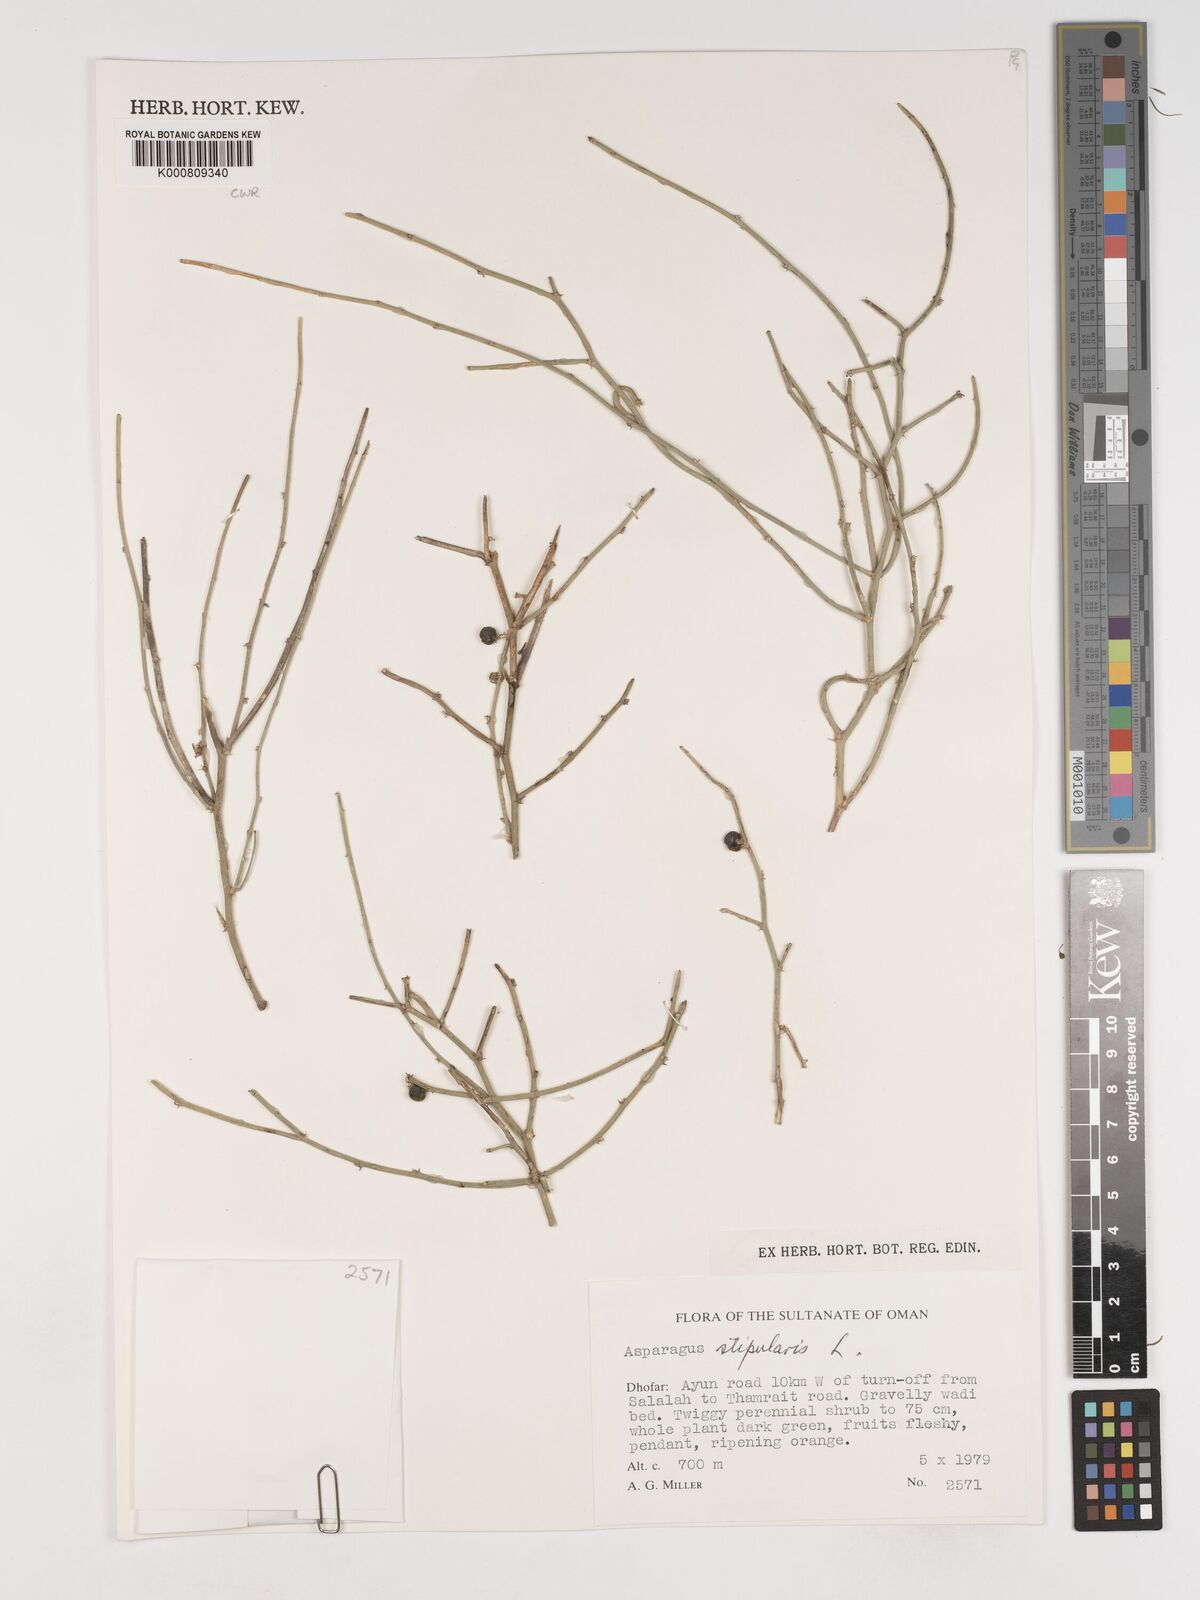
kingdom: Plantae
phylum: Tracheophyta
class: Liliopsida
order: Asparagales
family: Asparagaceae
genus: Asparagus
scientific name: Asparagus
